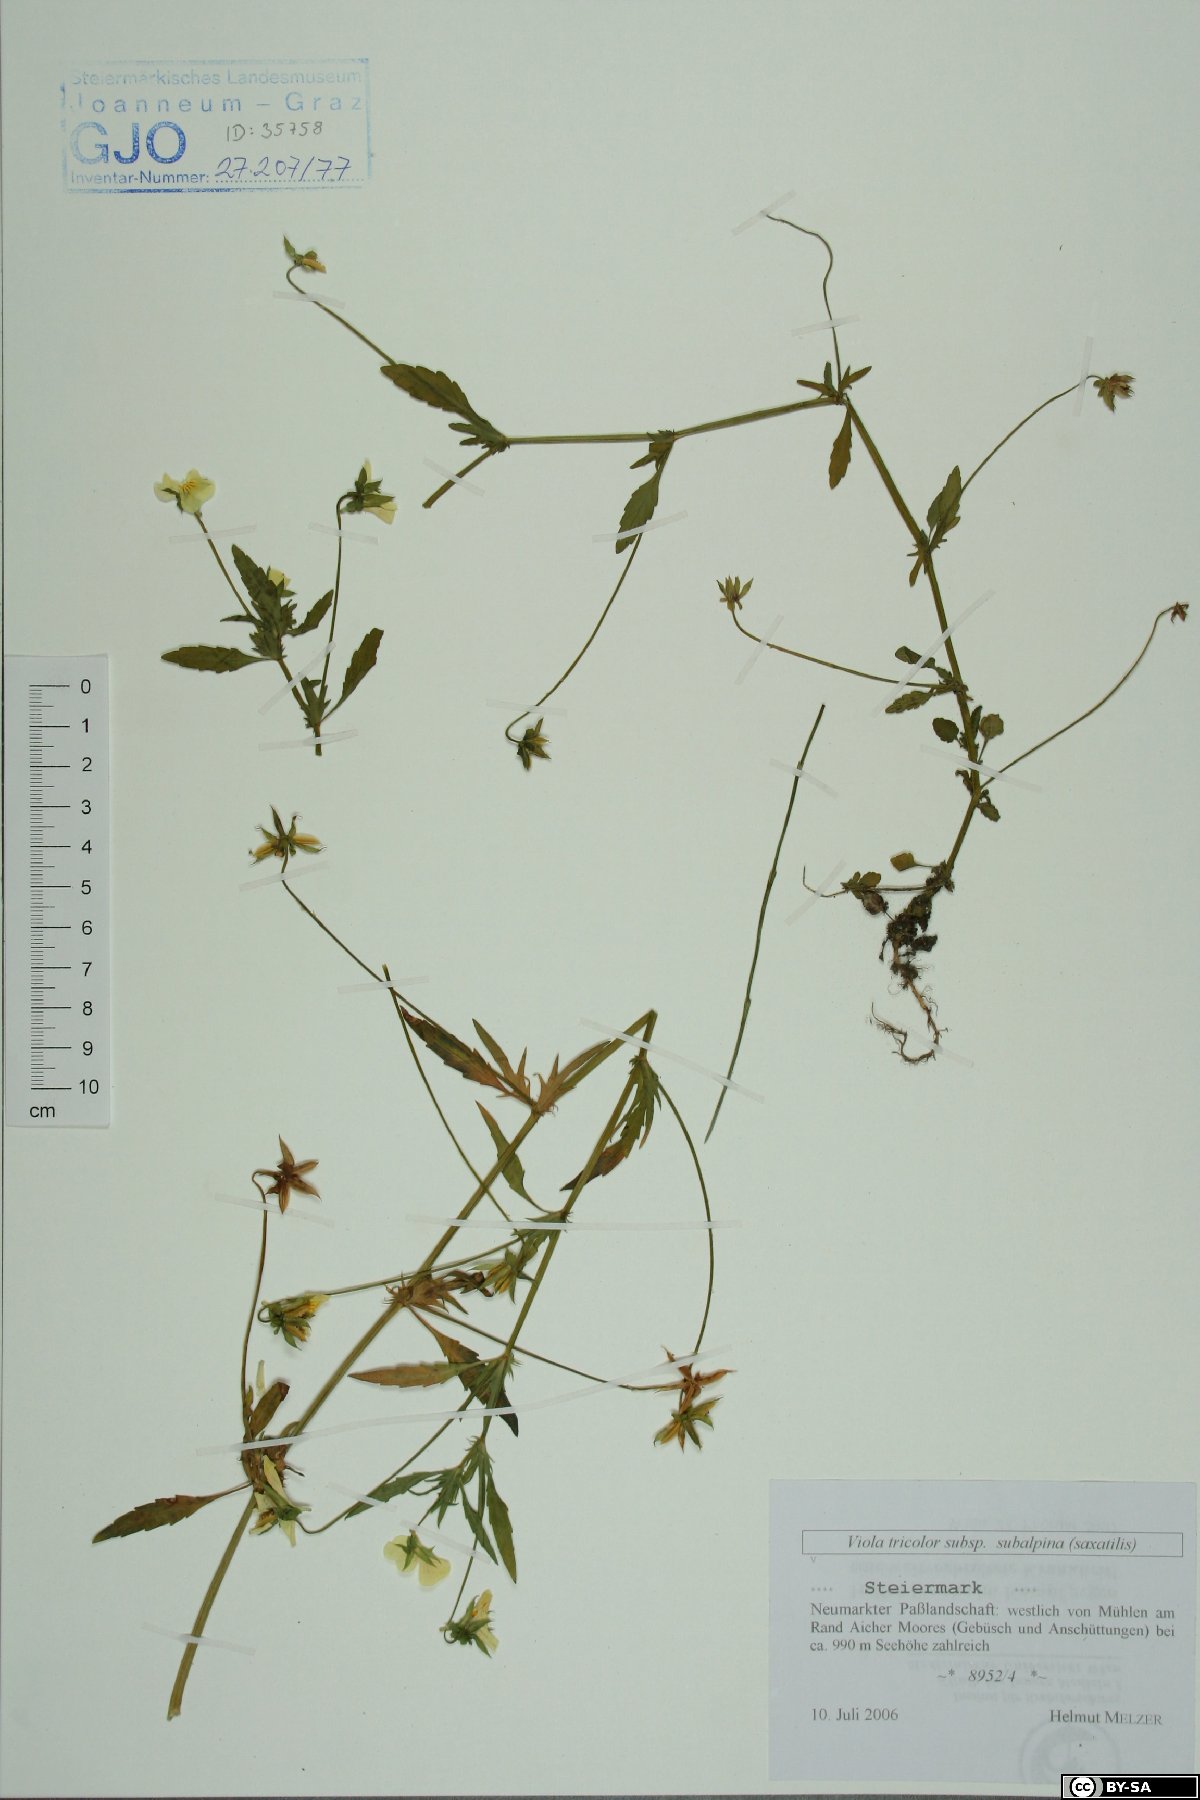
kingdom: Plantae
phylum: Tracheophyta
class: Magnoliopsida
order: Malpighiales
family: Violaceae
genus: Viola
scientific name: Viola tricolor
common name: Pansy
